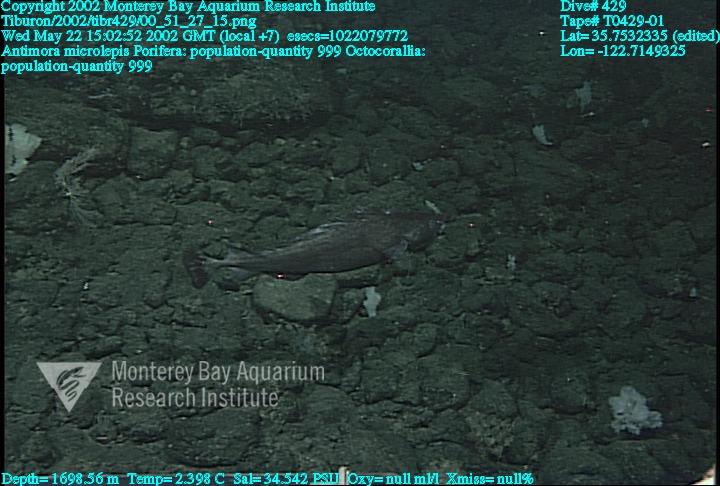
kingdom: Animalia
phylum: Porifera
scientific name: Porifera
